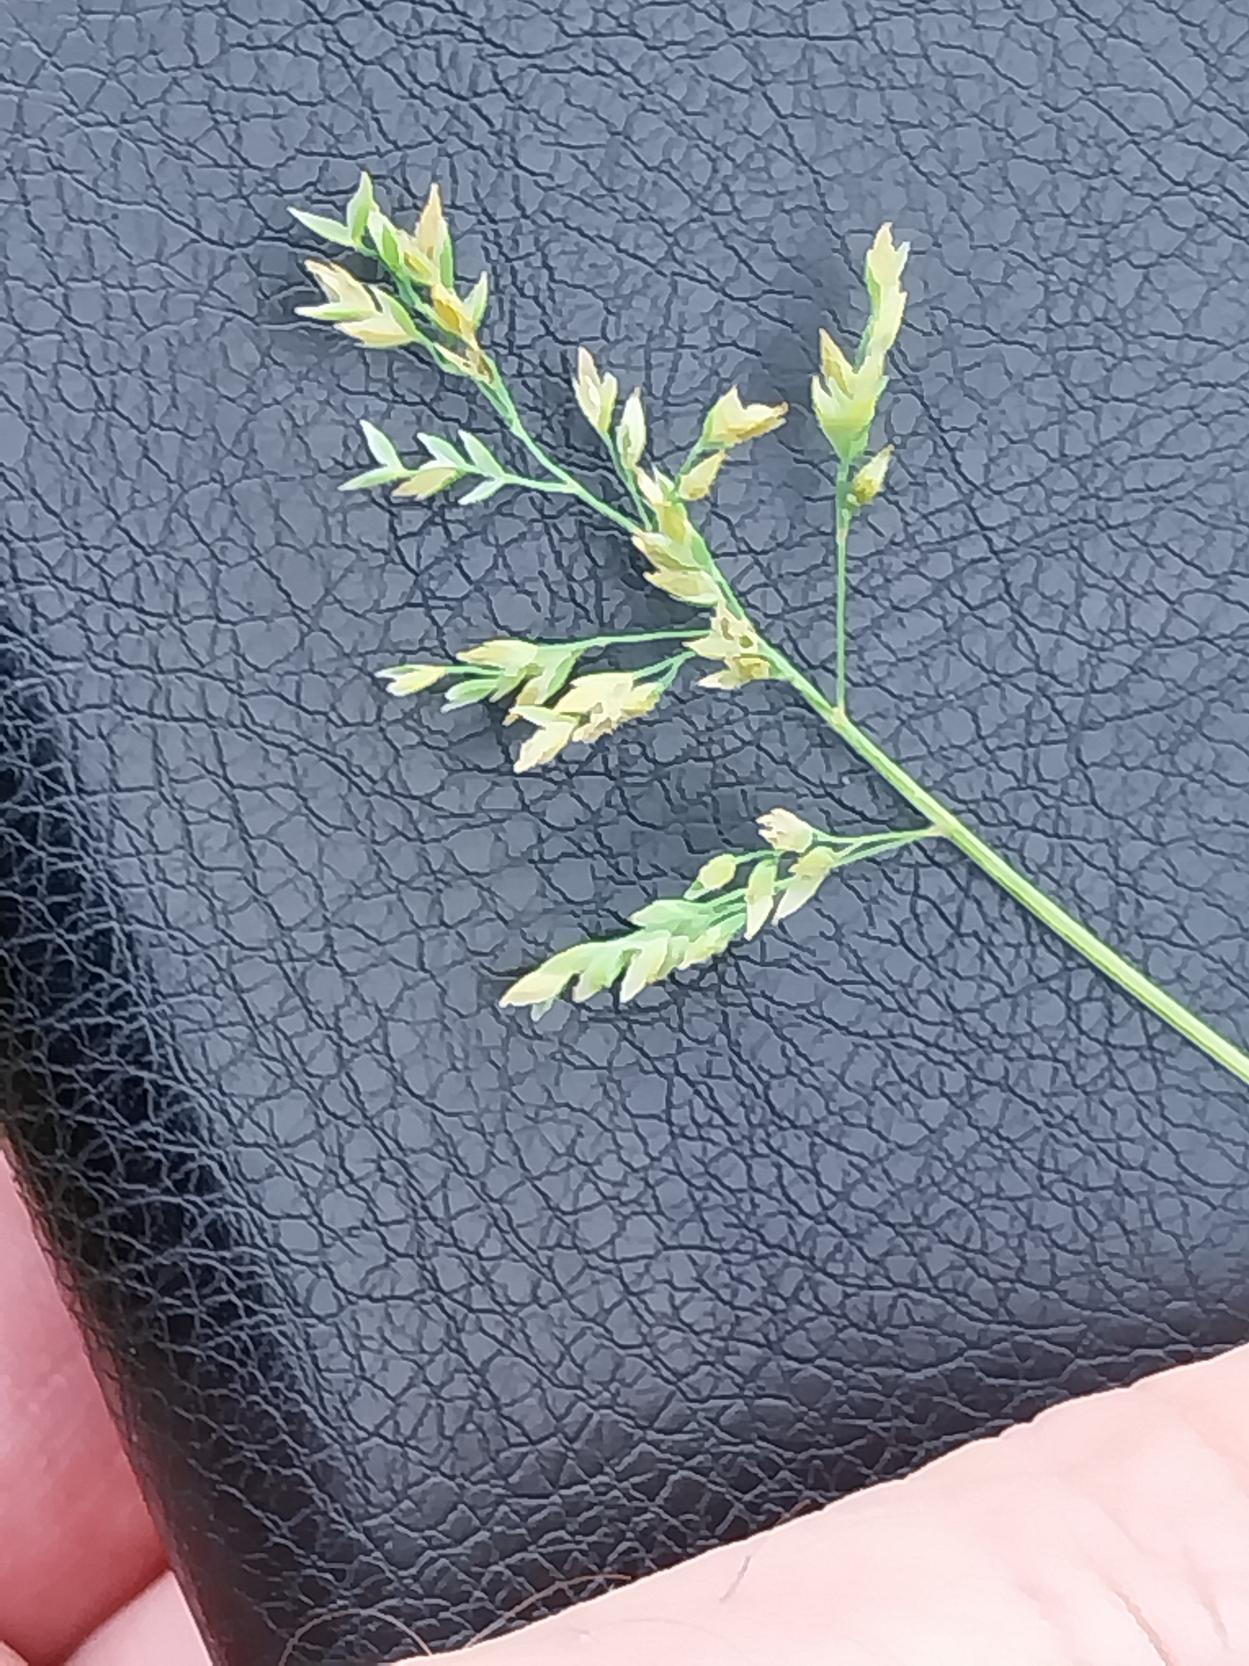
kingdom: Plantae
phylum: Tracheophyta
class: Liliopsida
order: Poales
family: Poaceae
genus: Poa
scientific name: Poa annua
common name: Enårig rapgræs
